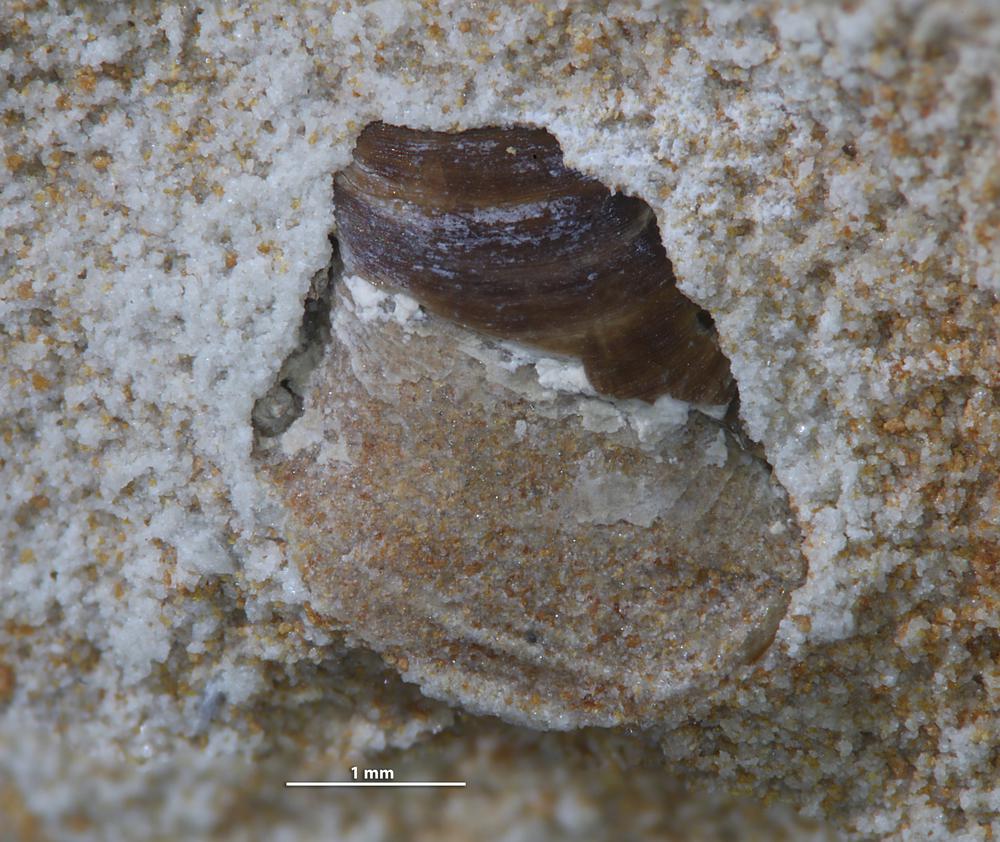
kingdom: Animalia
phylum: Brachiopoda
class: Lingulata
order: Lingulida
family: Lingulidae
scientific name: Lingulidae
